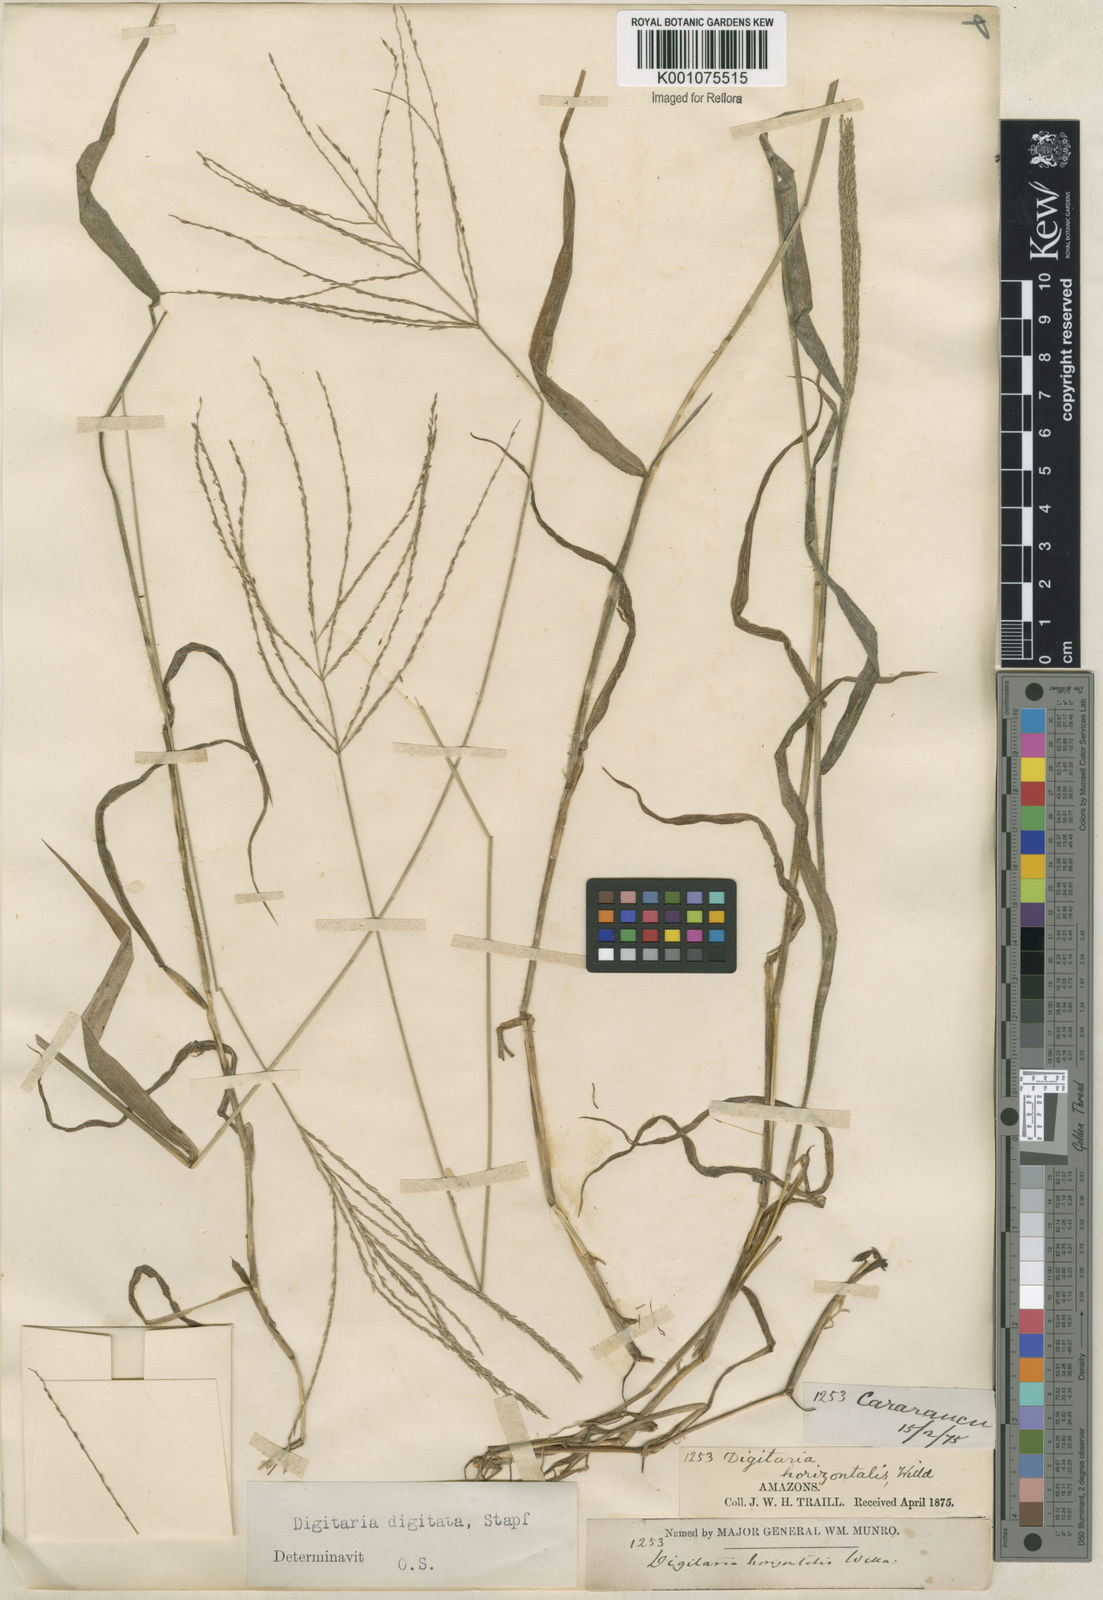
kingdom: Plantae
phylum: Tracheophyta
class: Liliopsida
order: Poales
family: Poaceae
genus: Digitaria
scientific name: Digitaria horizontalis
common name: Jamaican crabgrass
